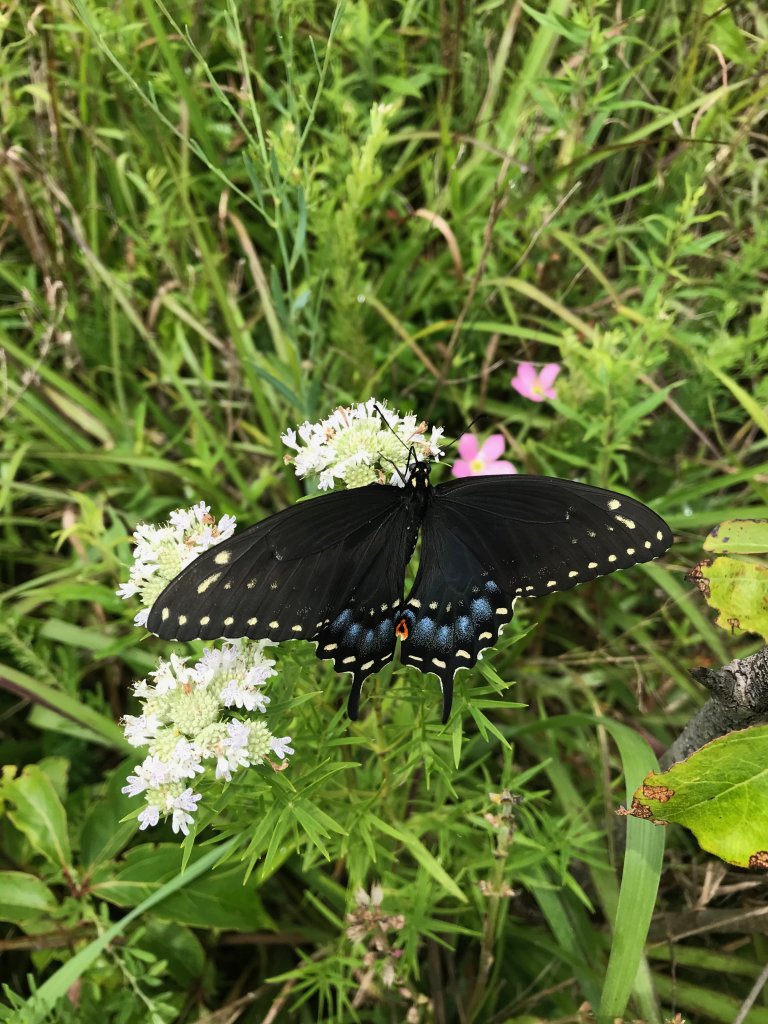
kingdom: Animalia
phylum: Arthropoda
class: Insecta
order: Lepidoptera
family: Papilionidae
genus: Papilio
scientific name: Papilio polyxenes
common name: Black Swallowtail
